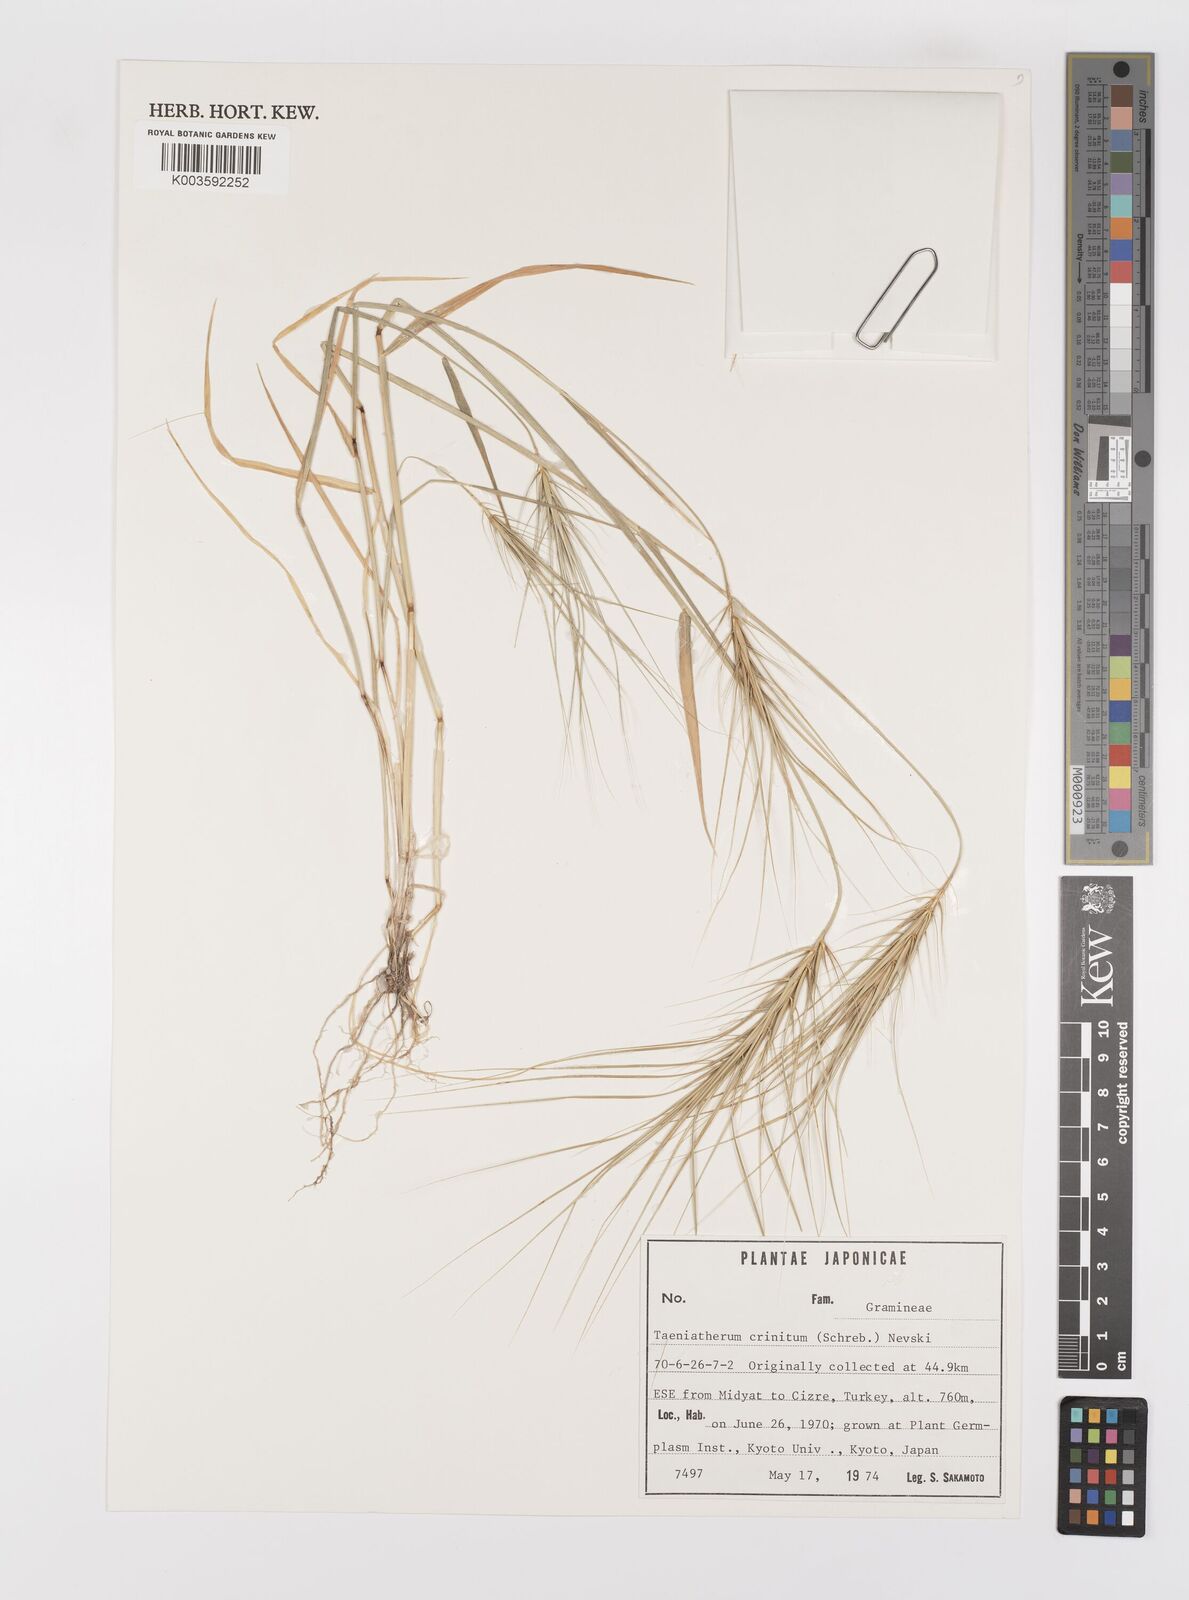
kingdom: Plantae
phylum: Tracheophyta
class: Liliopsida
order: Poales
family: Poaceae
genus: Taeniatherum
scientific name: Taeniatherum caput-medusae
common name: Medusahead
